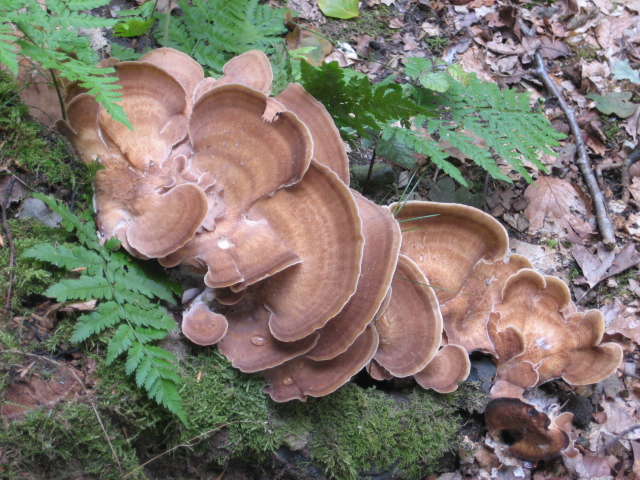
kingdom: Fungi
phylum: Basidiomycota
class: Agaricomycetes
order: Polyporales
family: Meripilaceae
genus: Meripilus
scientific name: Meripilus giganteus
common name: kæmpeporesvamp
